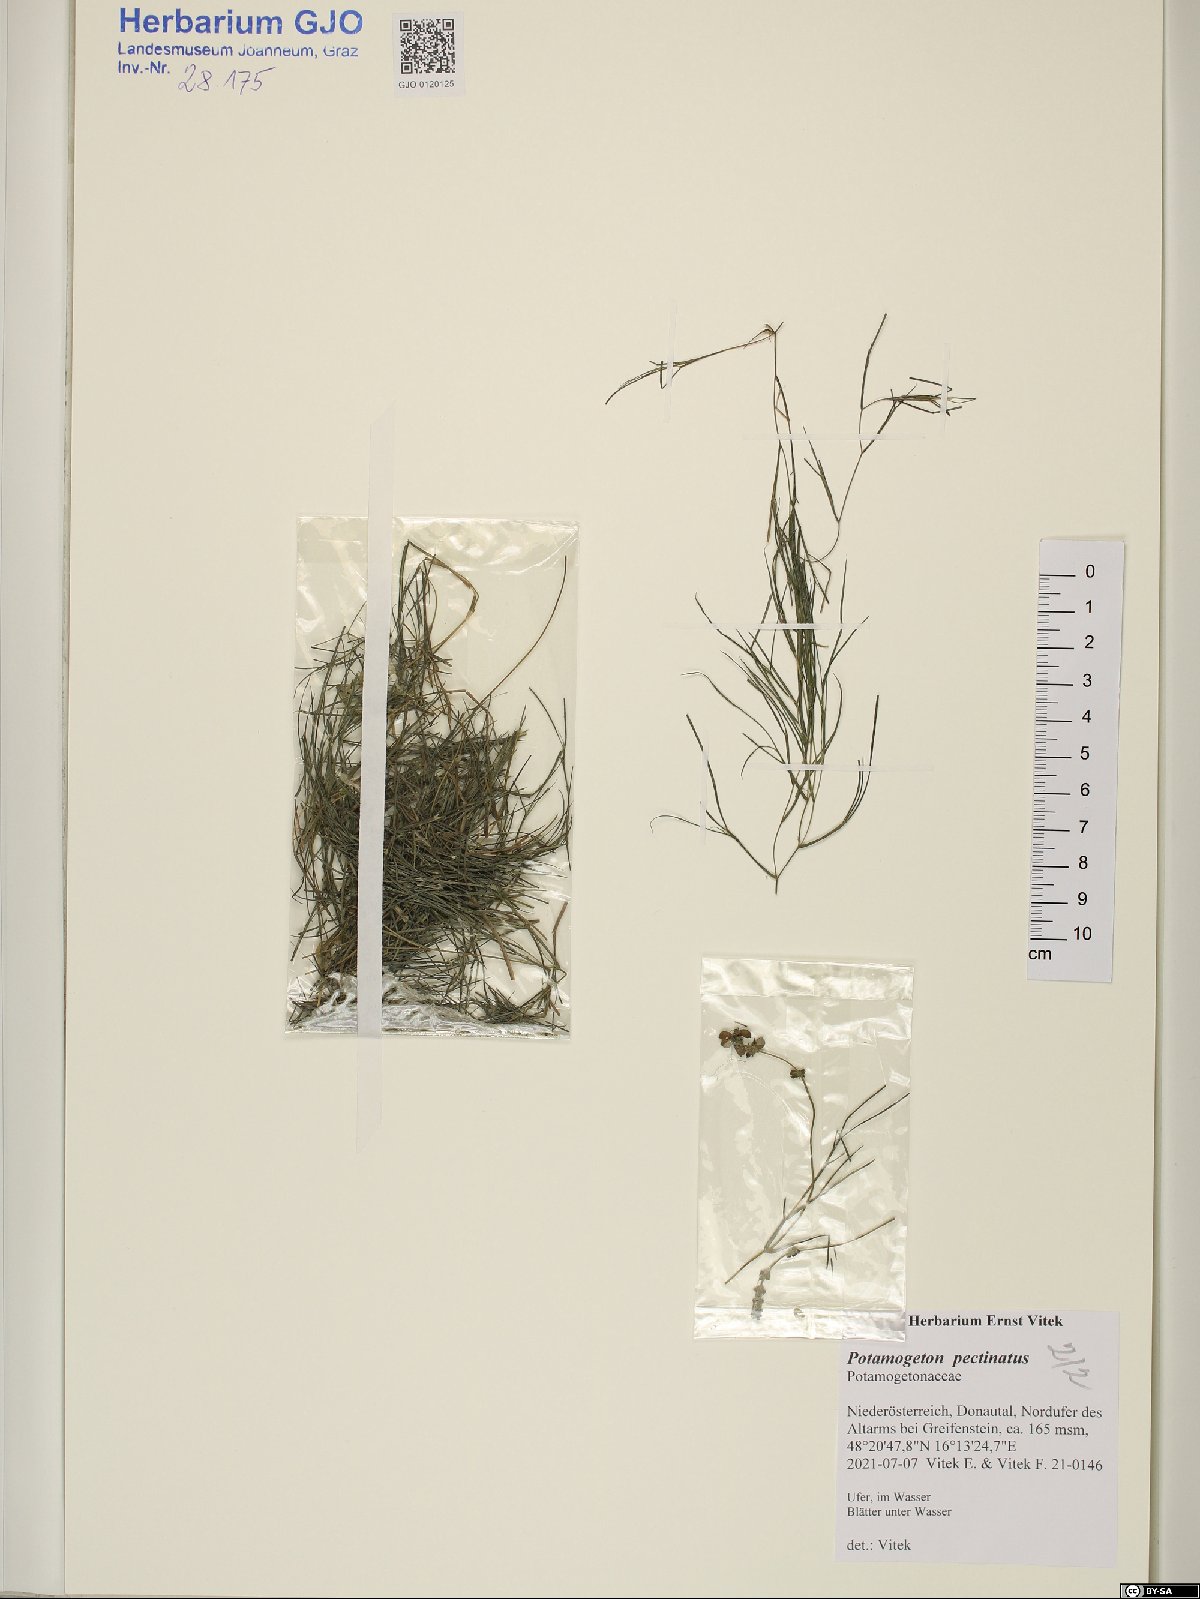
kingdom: Plantae
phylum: Tracheophyta
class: Liliopsida
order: Alismatales
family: Potamogetonaceae
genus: Stuckenia
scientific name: Stuckenia pectinata
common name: Sago pondweed
